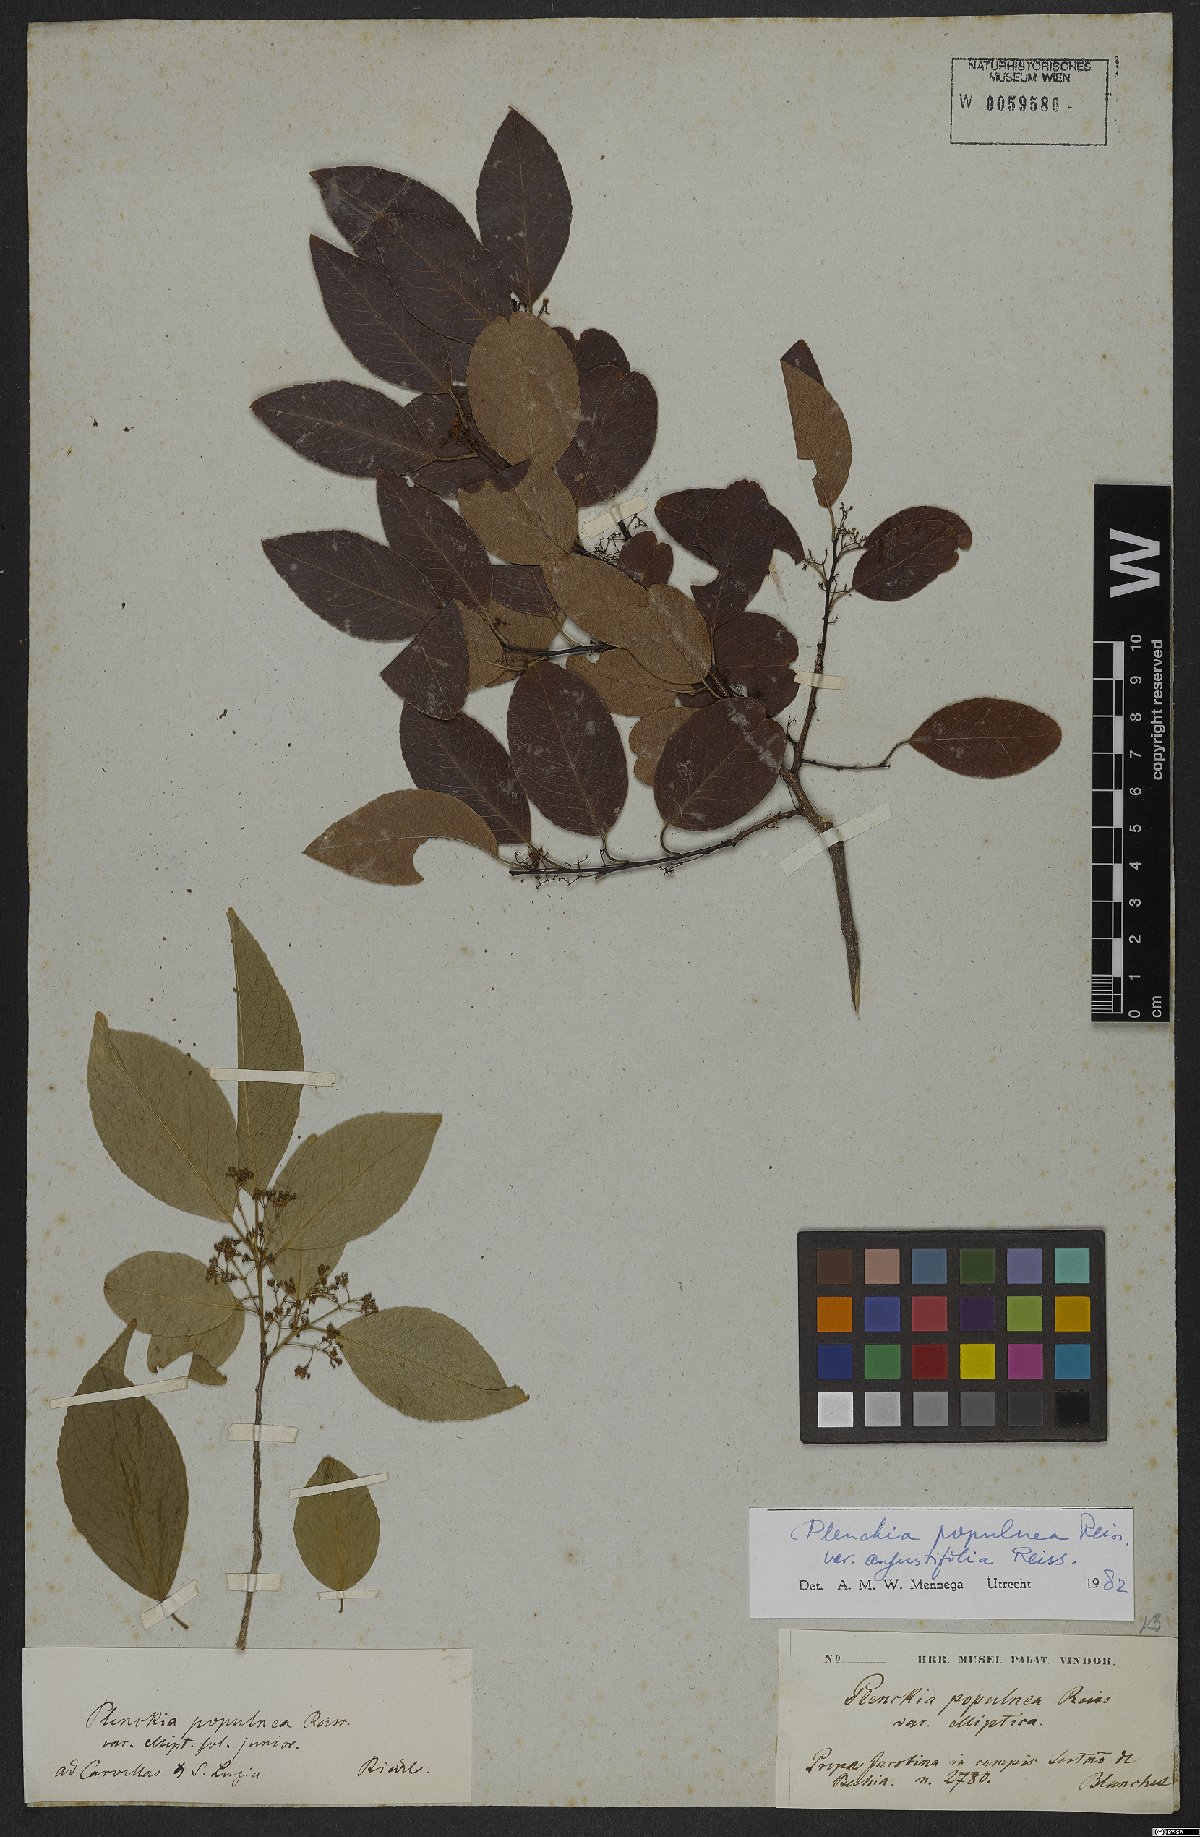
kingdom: Plantae
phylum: Tracheophyta
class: Magnoliopsida
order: Celastrales
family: Celastraceae
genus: Plenckia
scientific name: Plenckia populnea
